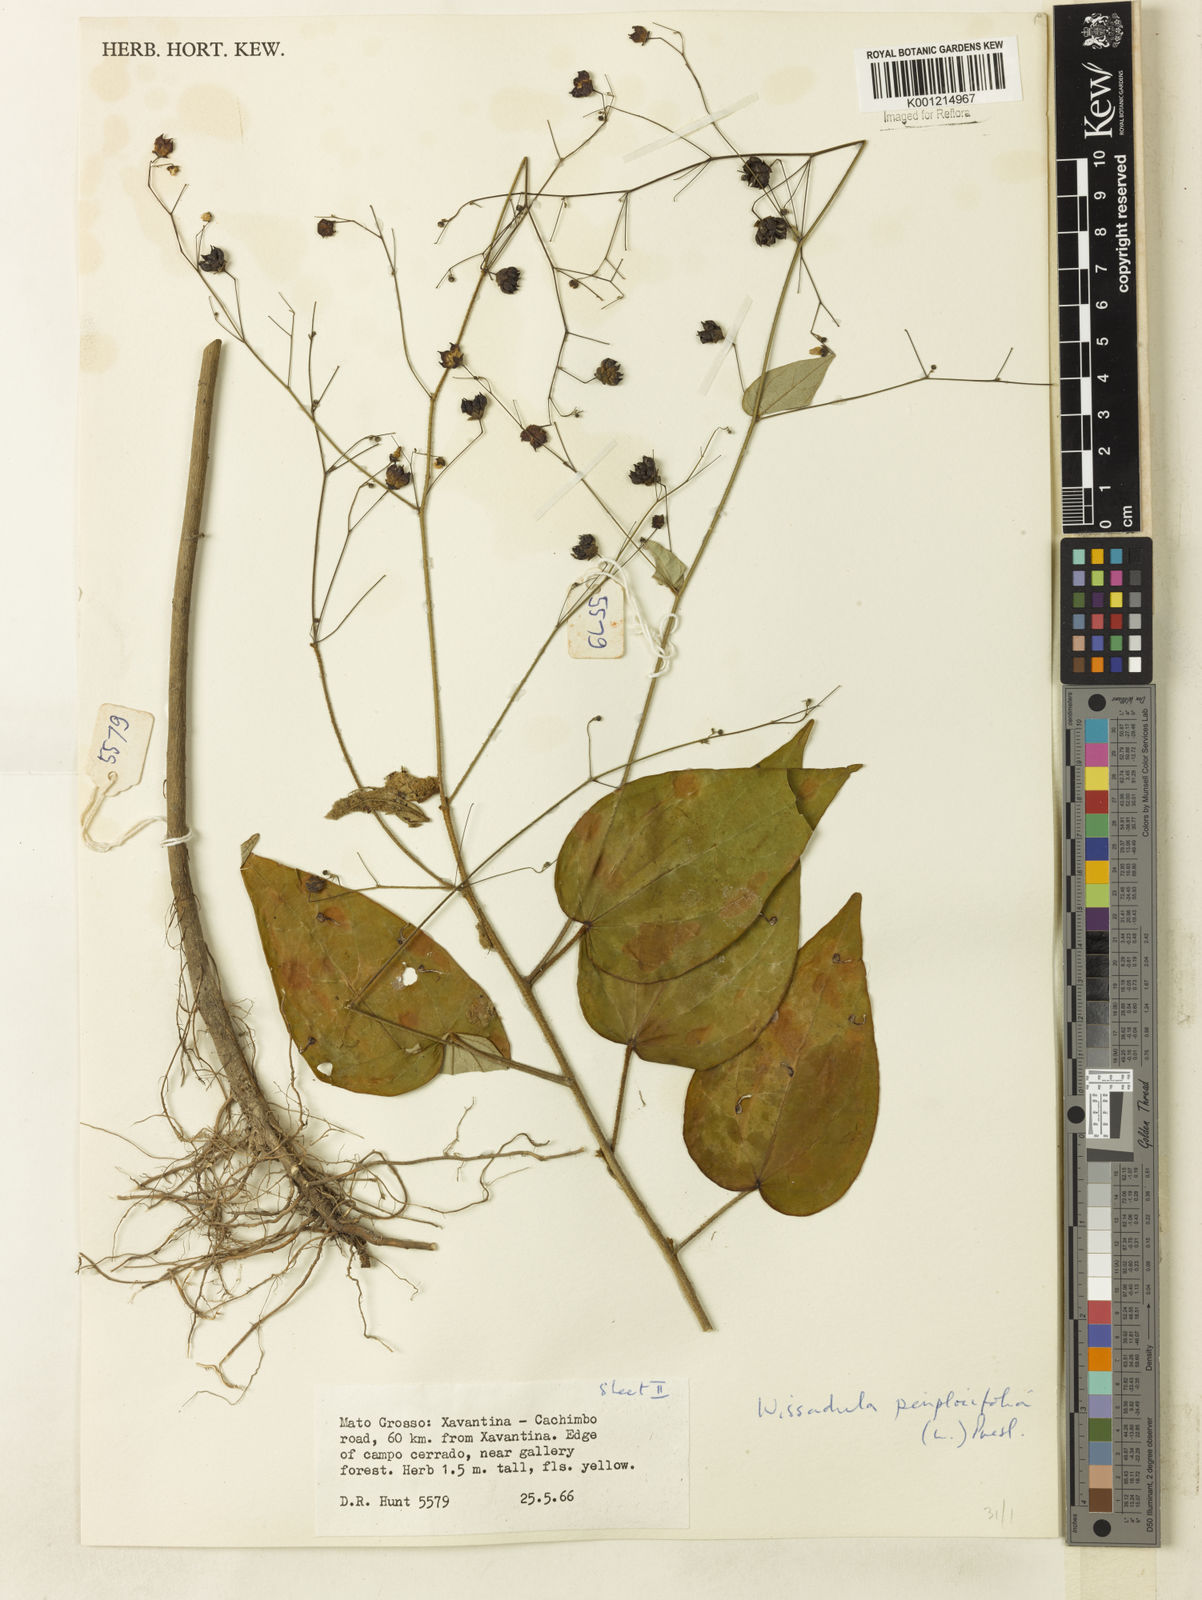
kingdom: Plantae
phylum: Tracheophyta
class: Magnoliopsida
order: Malvales
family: Malvaceae
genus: Wissadula
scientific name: Wissadula periplocifolia
